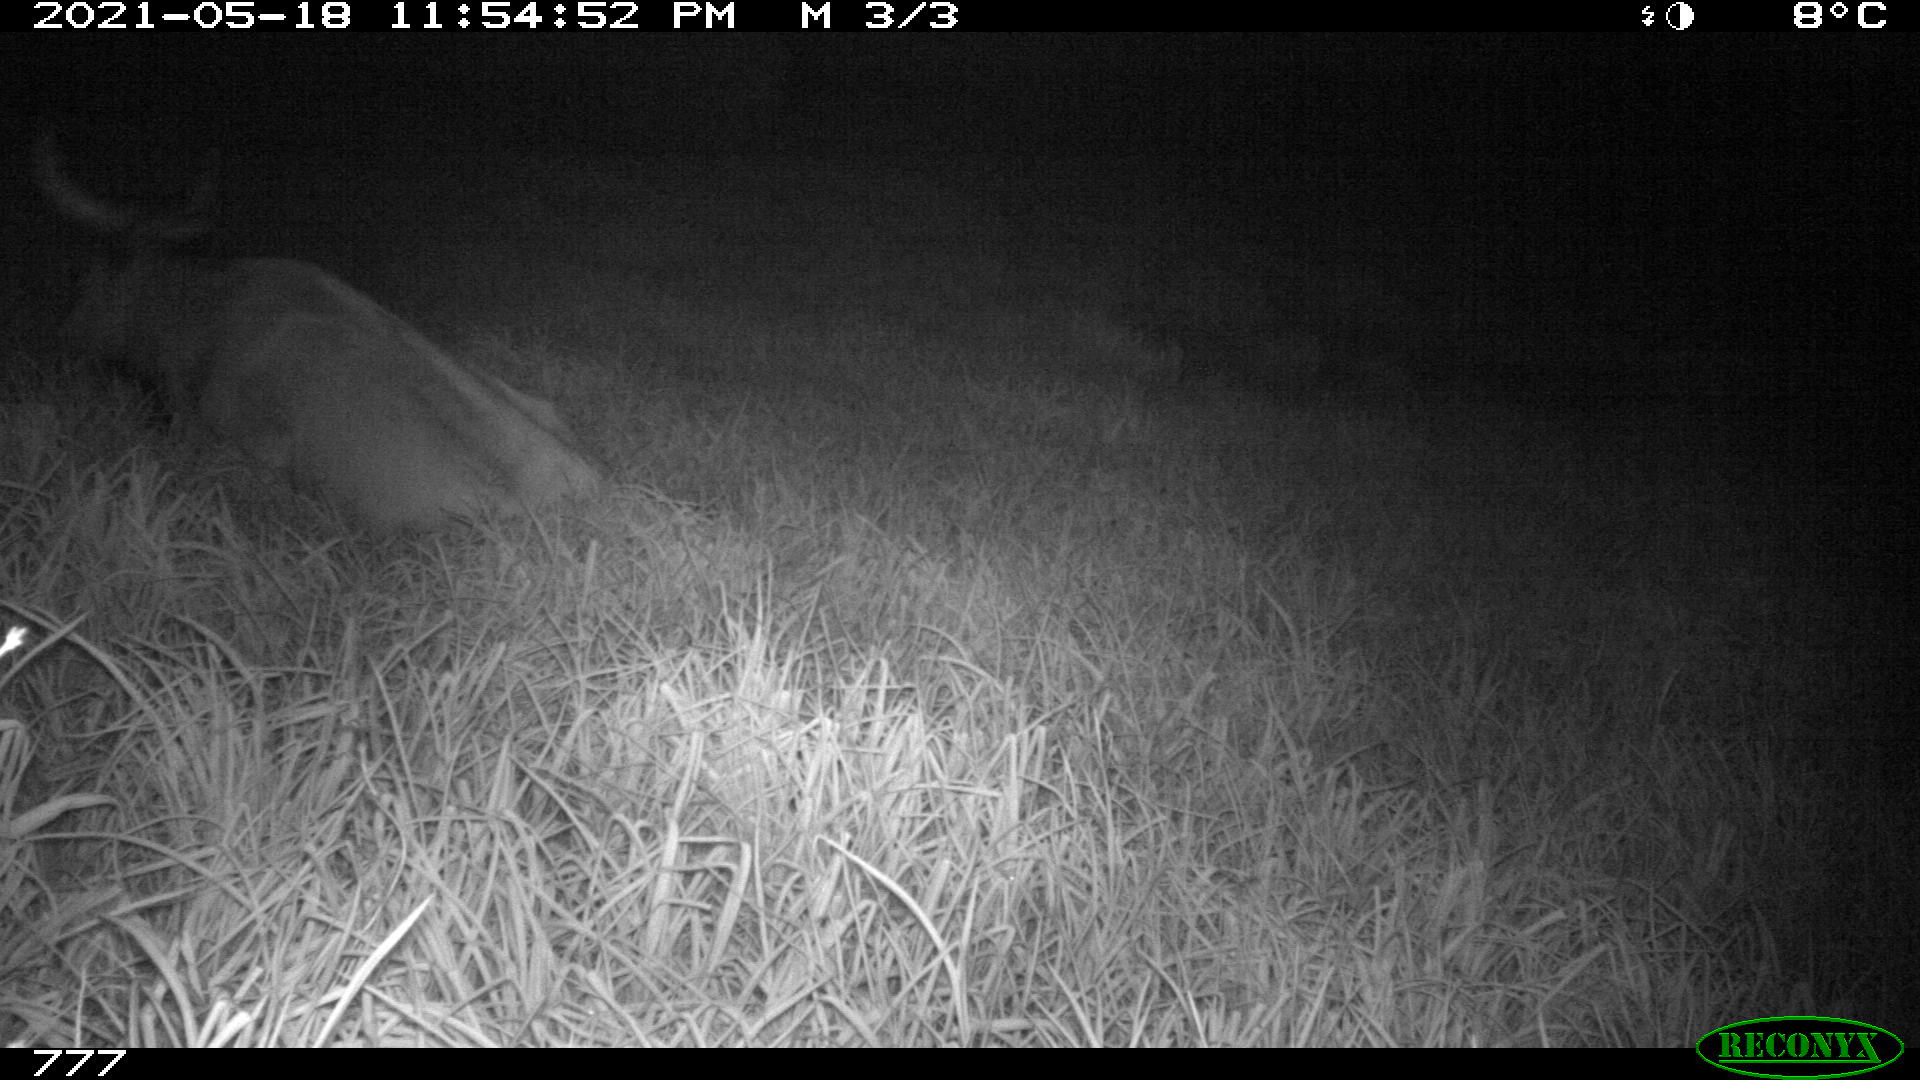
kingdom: Animalia
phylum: Chordata
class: Mammalia
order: Artiodactyla
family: Bovidae
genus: Bos
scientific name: Bos taurus
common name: Domesticated cattle
